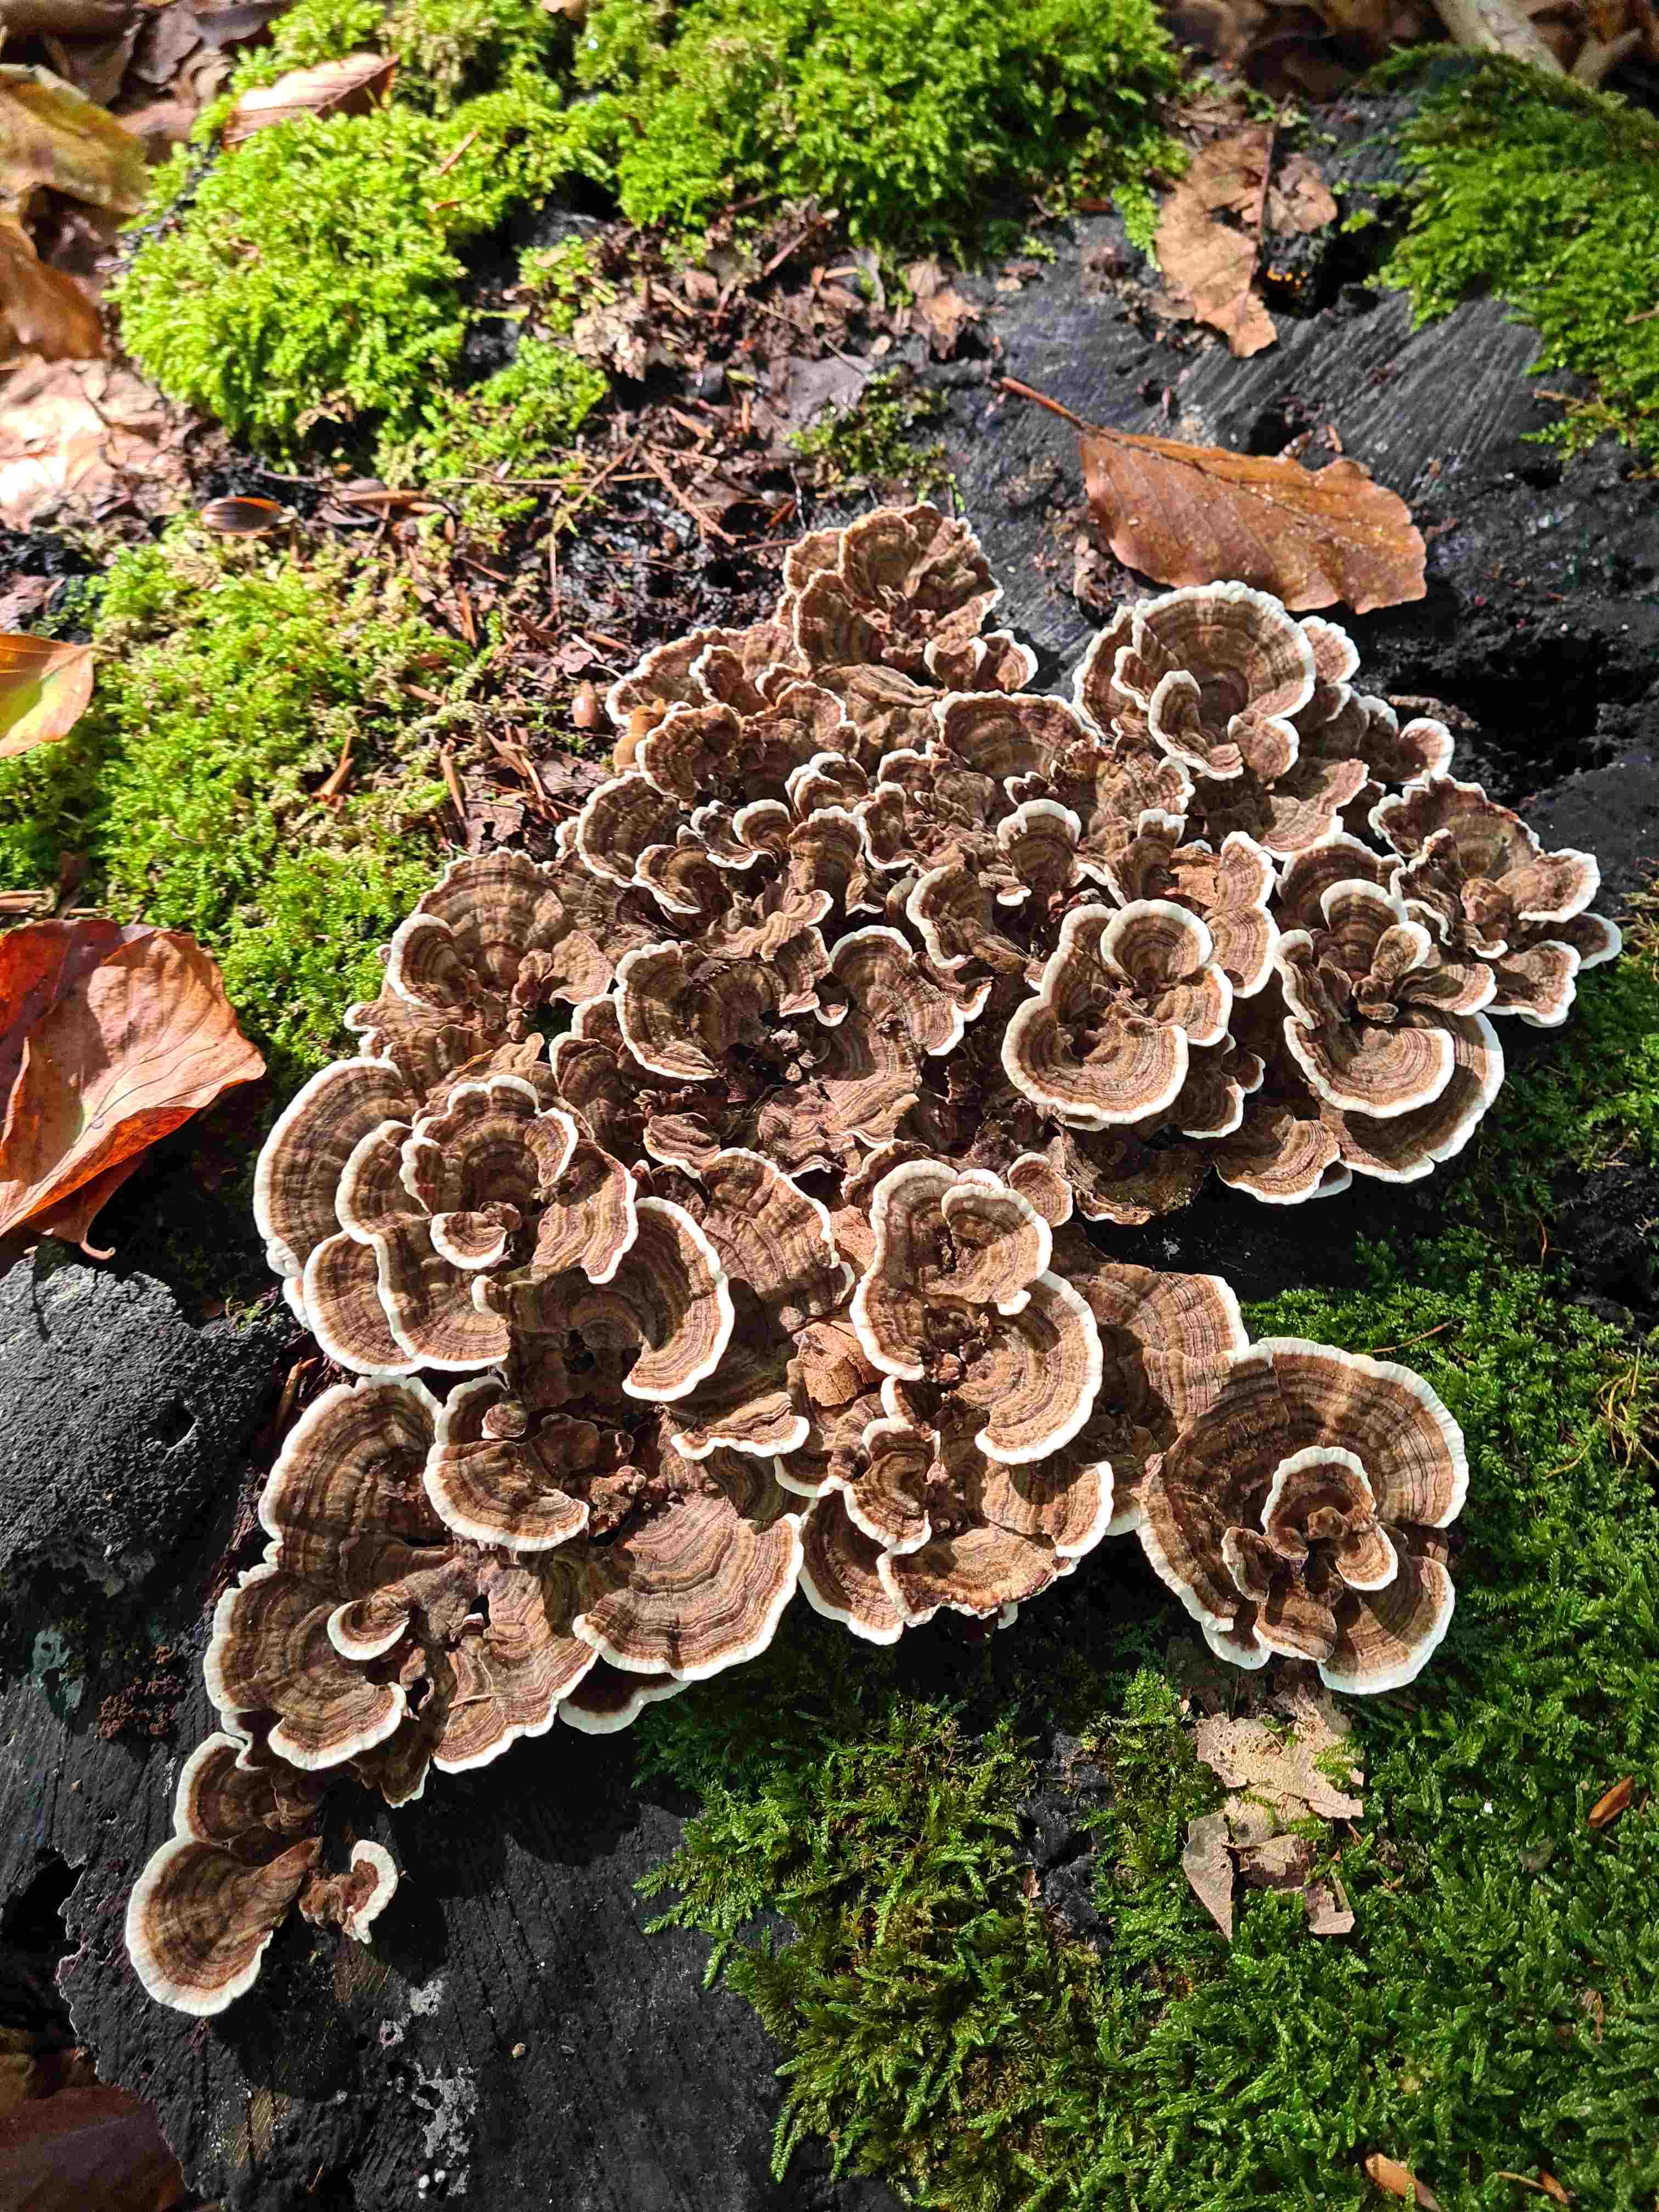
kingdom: Fungi
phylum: Basidiomycota
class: Agaricomycetes
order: Polyporales
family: Polyporaceae
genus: Trametes
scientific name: Trametes versicolor
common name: broget læderporesvamp
